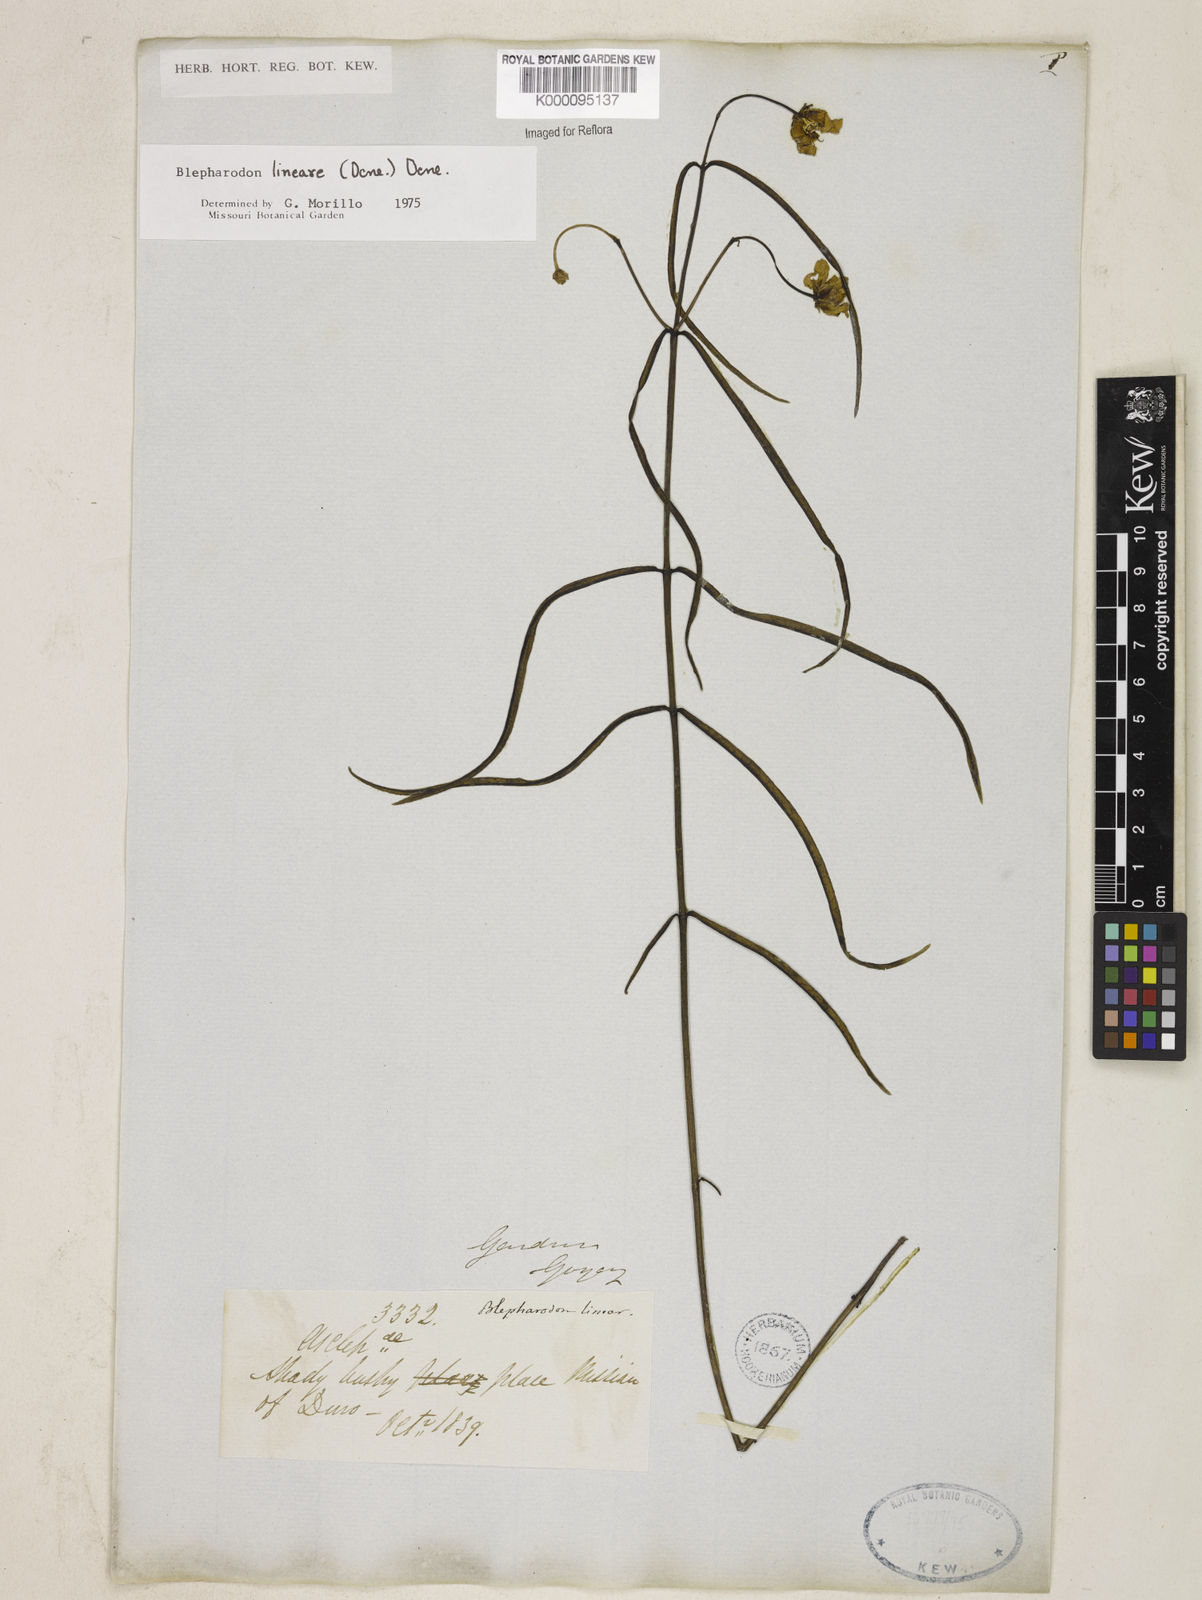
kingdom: Plantae
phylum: Tracheophyta
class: Magnoliopsida
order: Gentianales
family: Apocynaceae
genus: Blepharodon
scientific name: Blepharodon lineare
